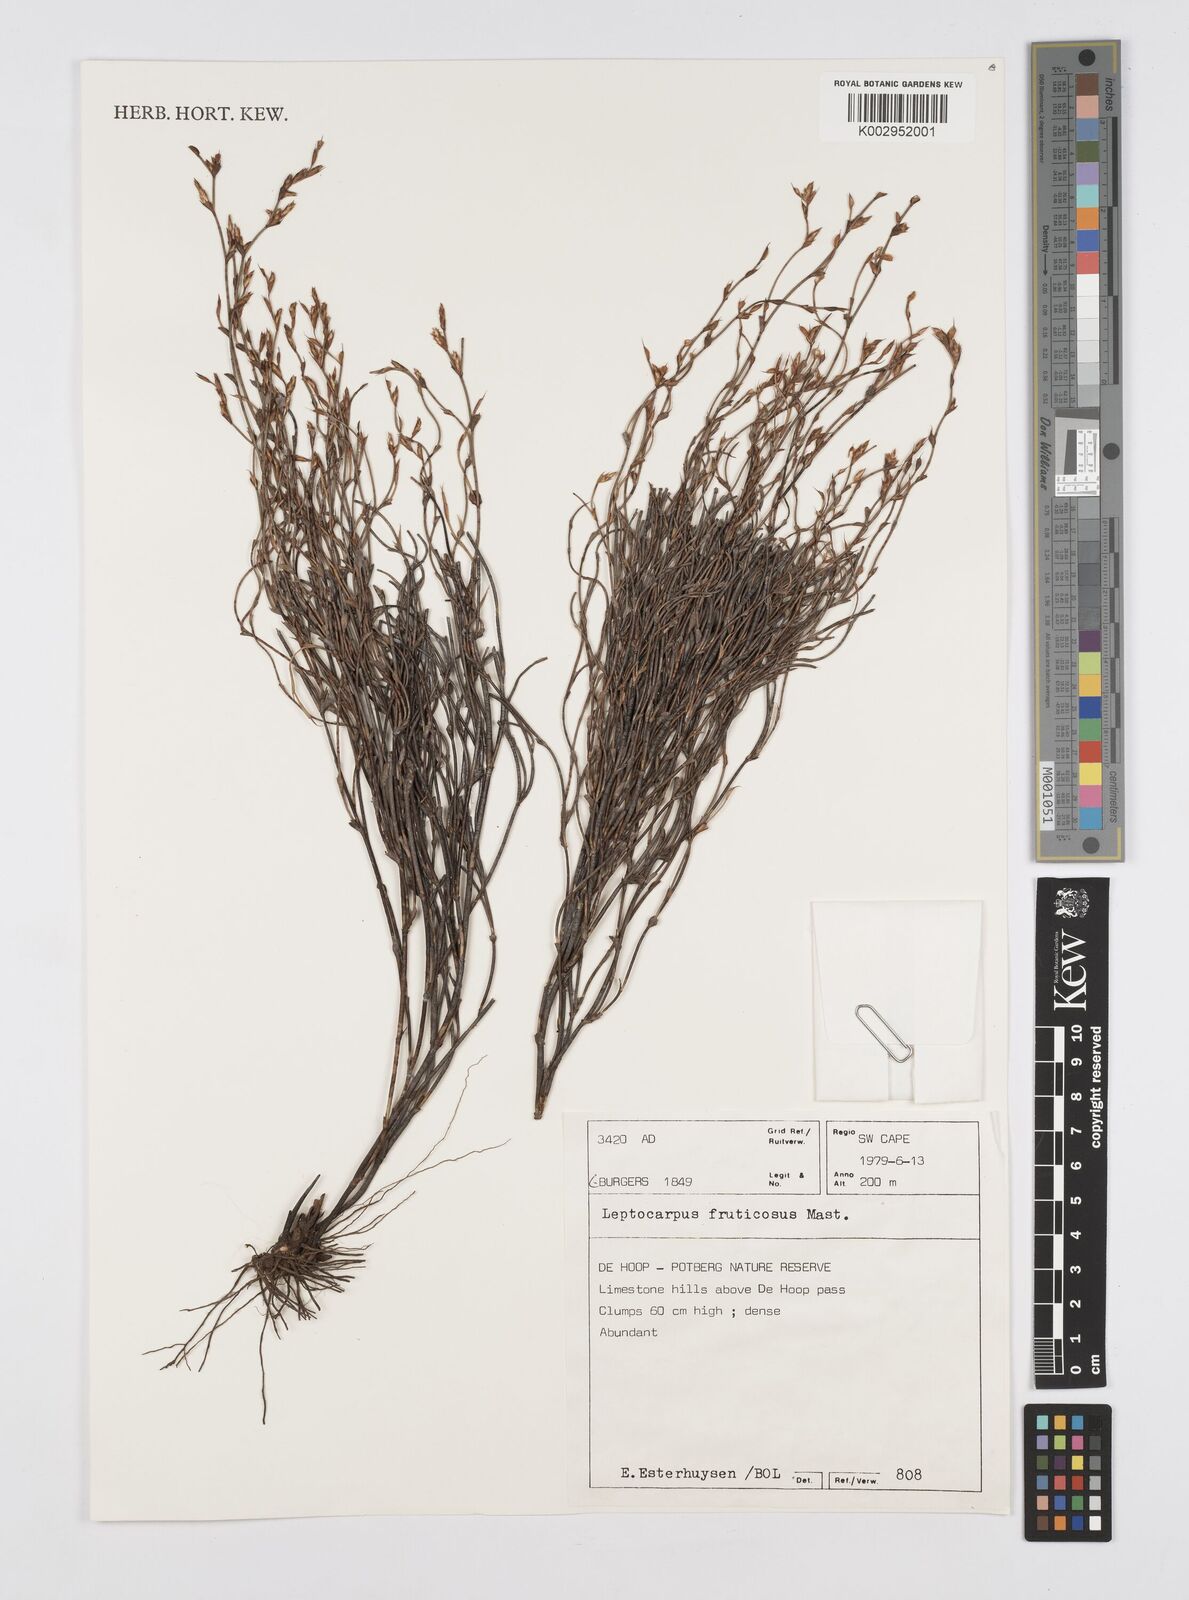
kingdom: Plantae
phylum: Tracheophyta
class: Liliopsida
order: Poales
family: Restionaceae
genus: Rhodocoma
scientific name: Rhodocoma fruticosa
